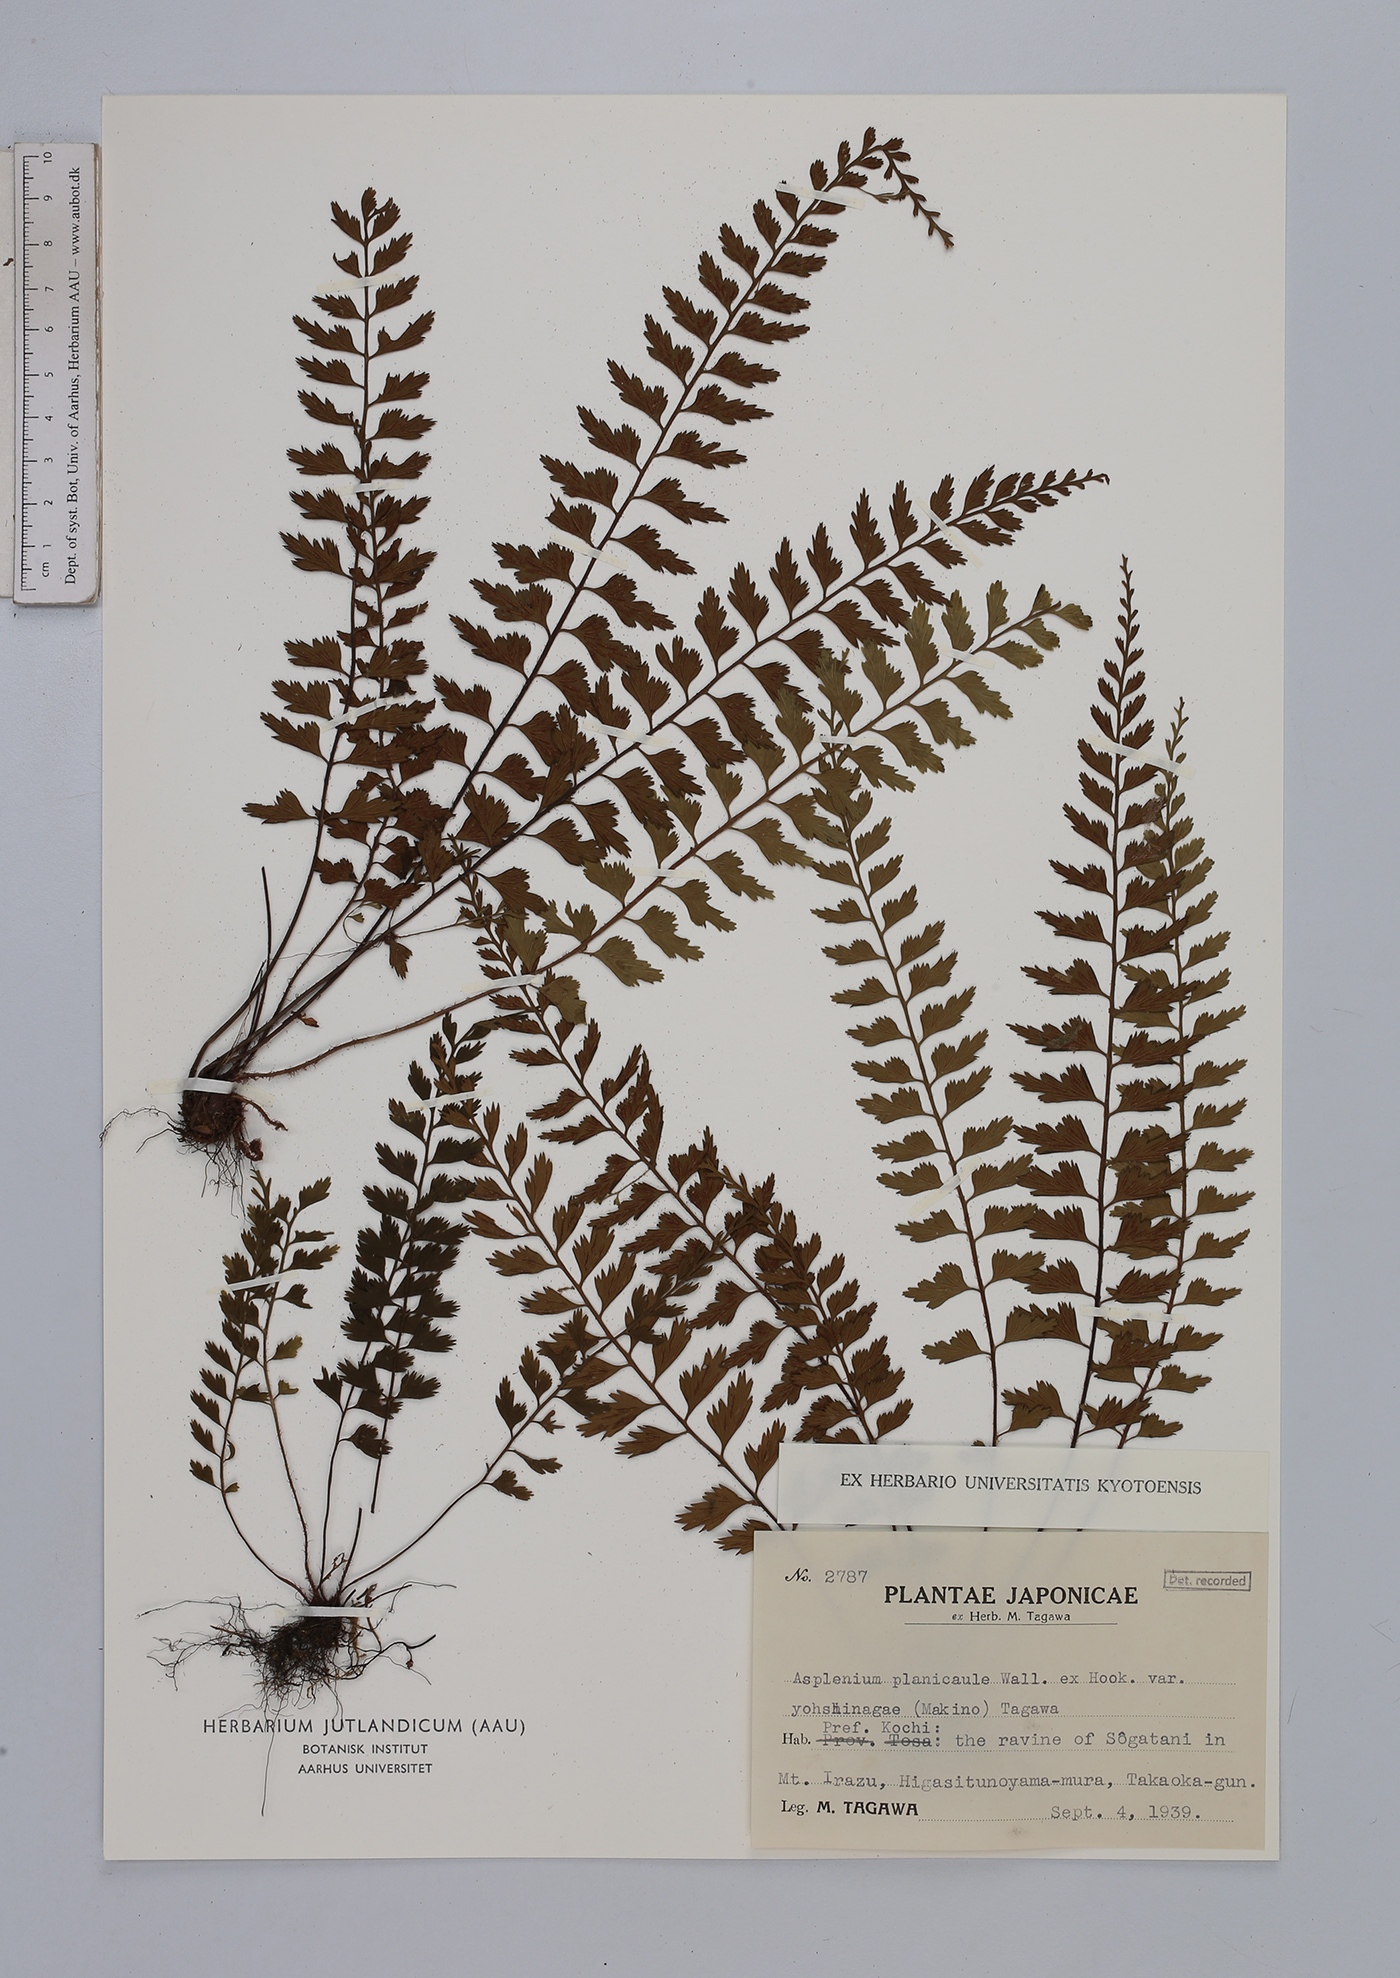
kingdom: Plantae
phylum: Tracheophyta
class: Polypodiopsida
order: Polypodiales
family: Aspleniaceae
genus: Asplenium
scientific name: Asplenium yoshinagae
